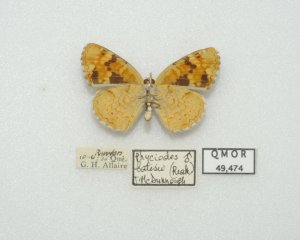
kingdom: Animalia
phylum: Arthropoda
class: Insecta
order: Lepidoptera
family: Nymphalidae
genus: Phyciodes
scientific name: Phyciodes batesii
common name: Tawny Crescent
